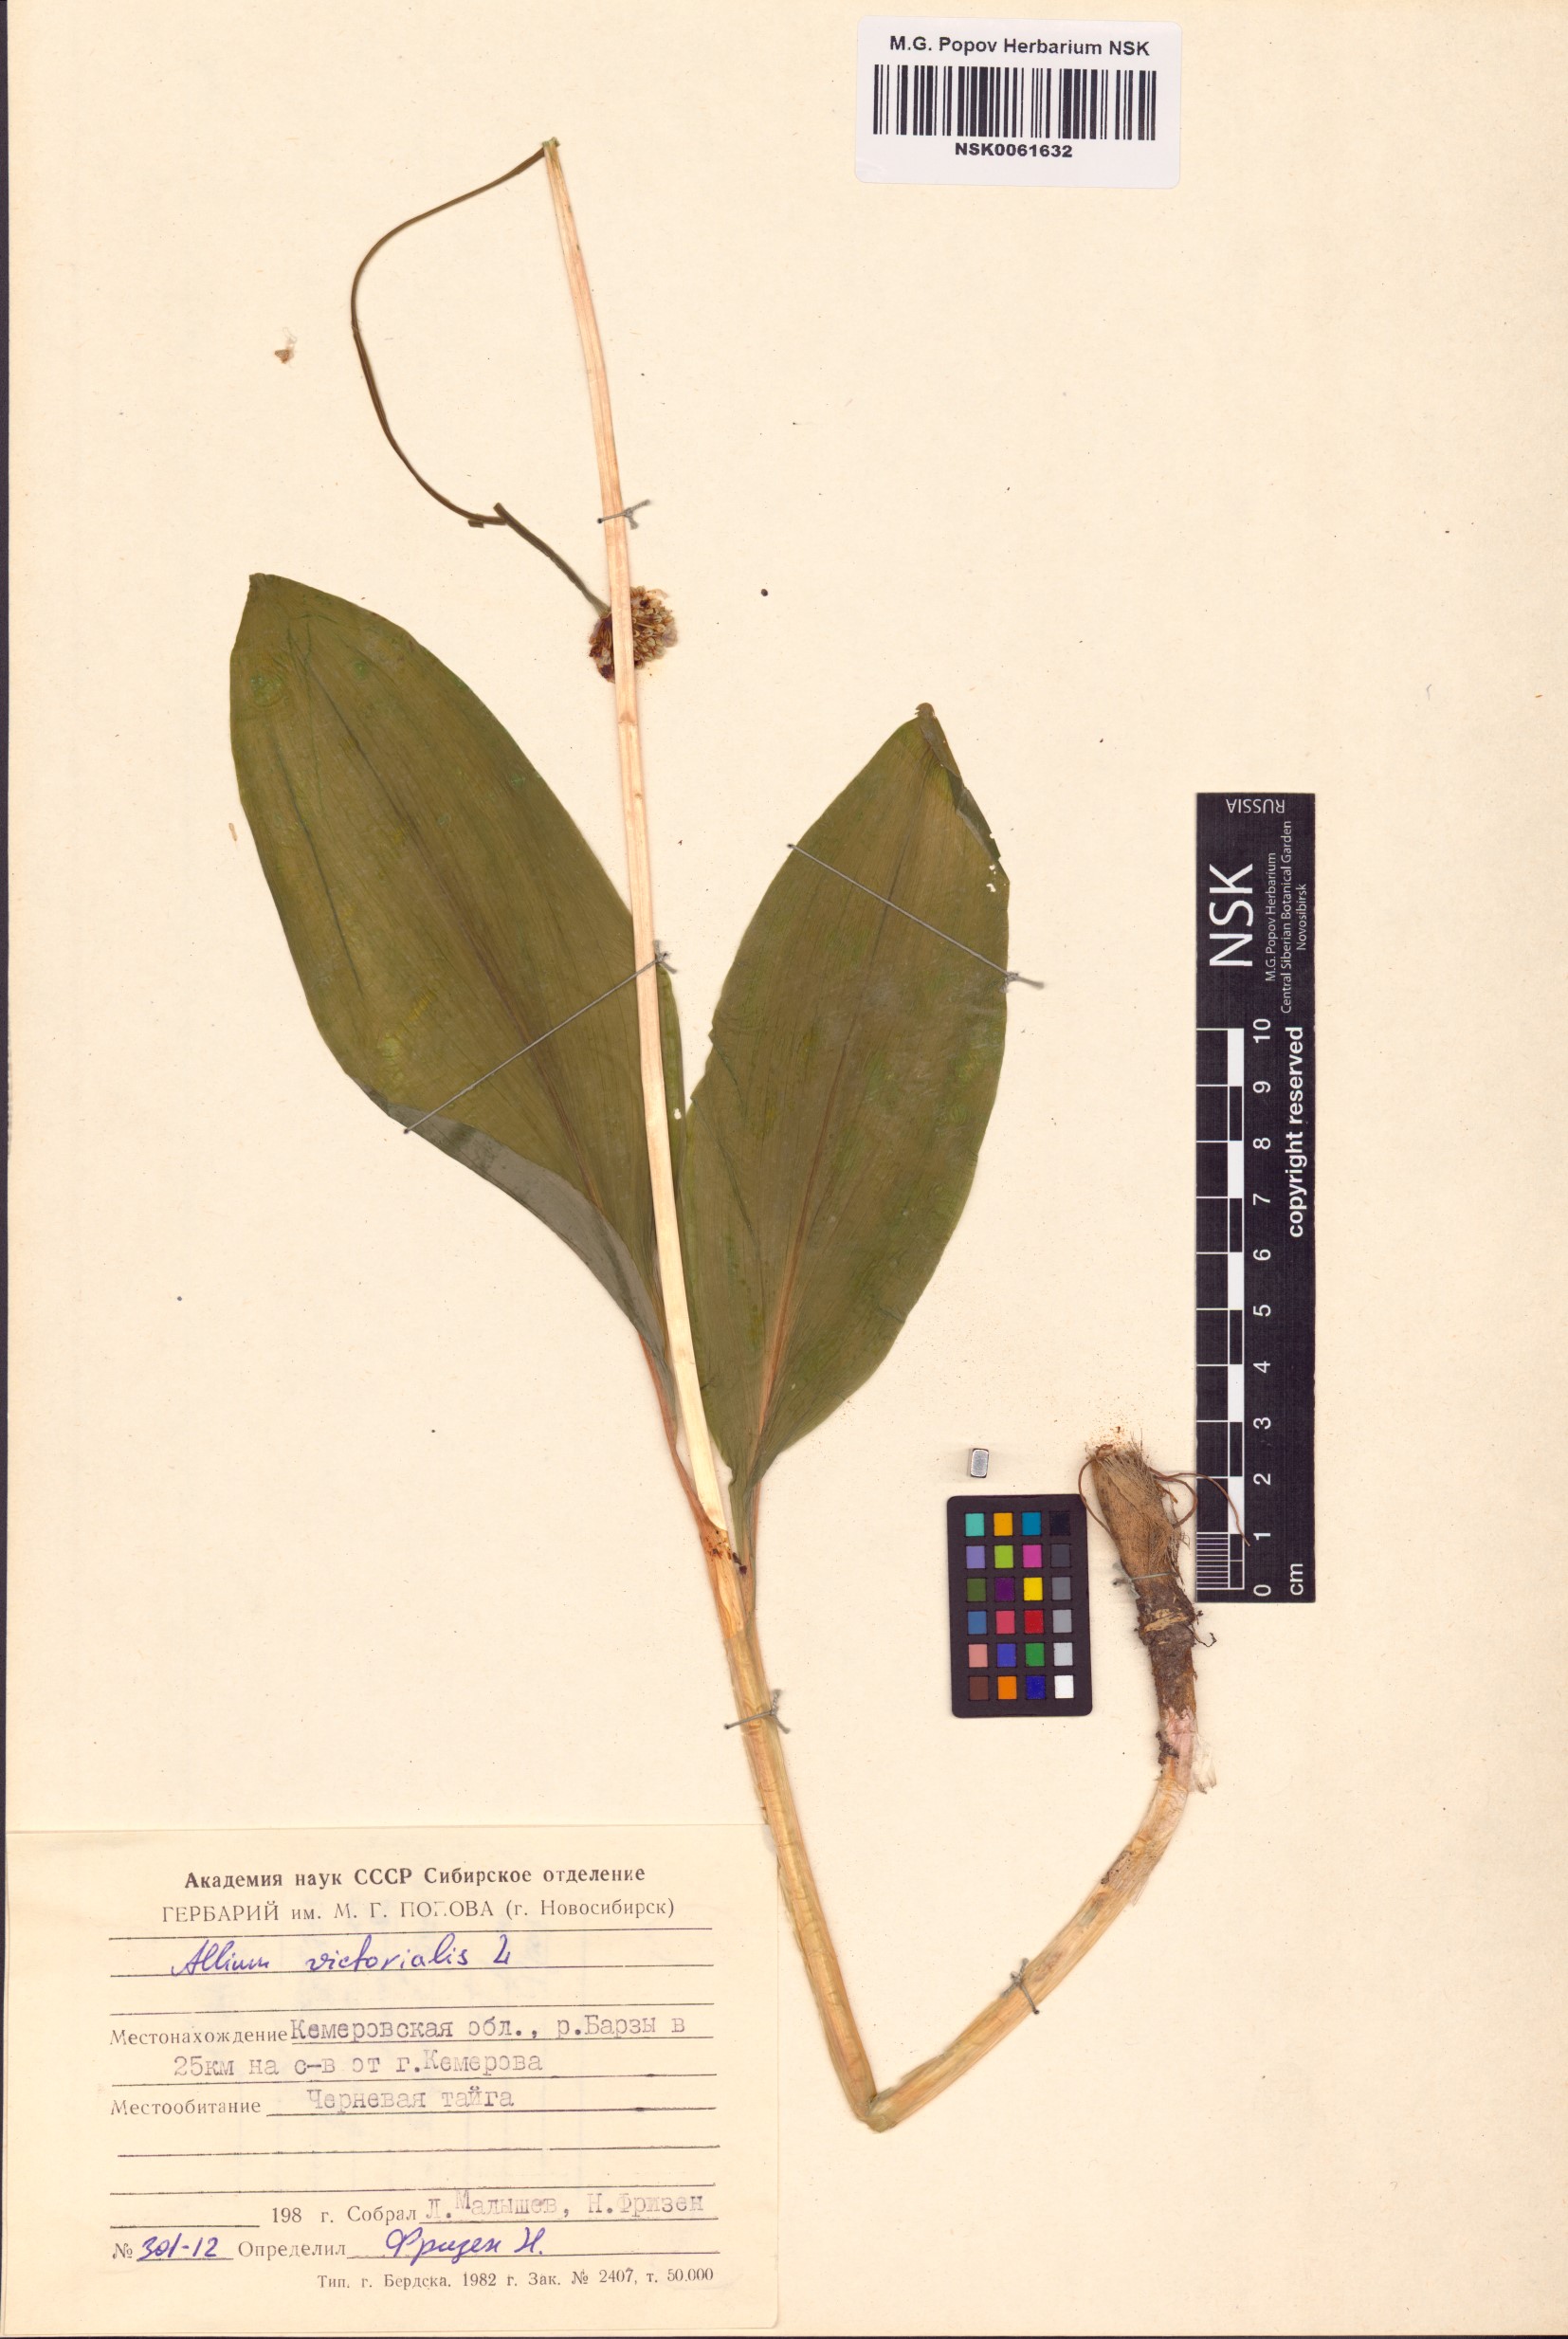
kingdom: Plantae
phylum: Tracheophyta
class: Liliopsida
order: Asparagales
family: Amaryllidaceae
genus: Allium
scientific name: Allium victorialis
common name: Alpine leek
